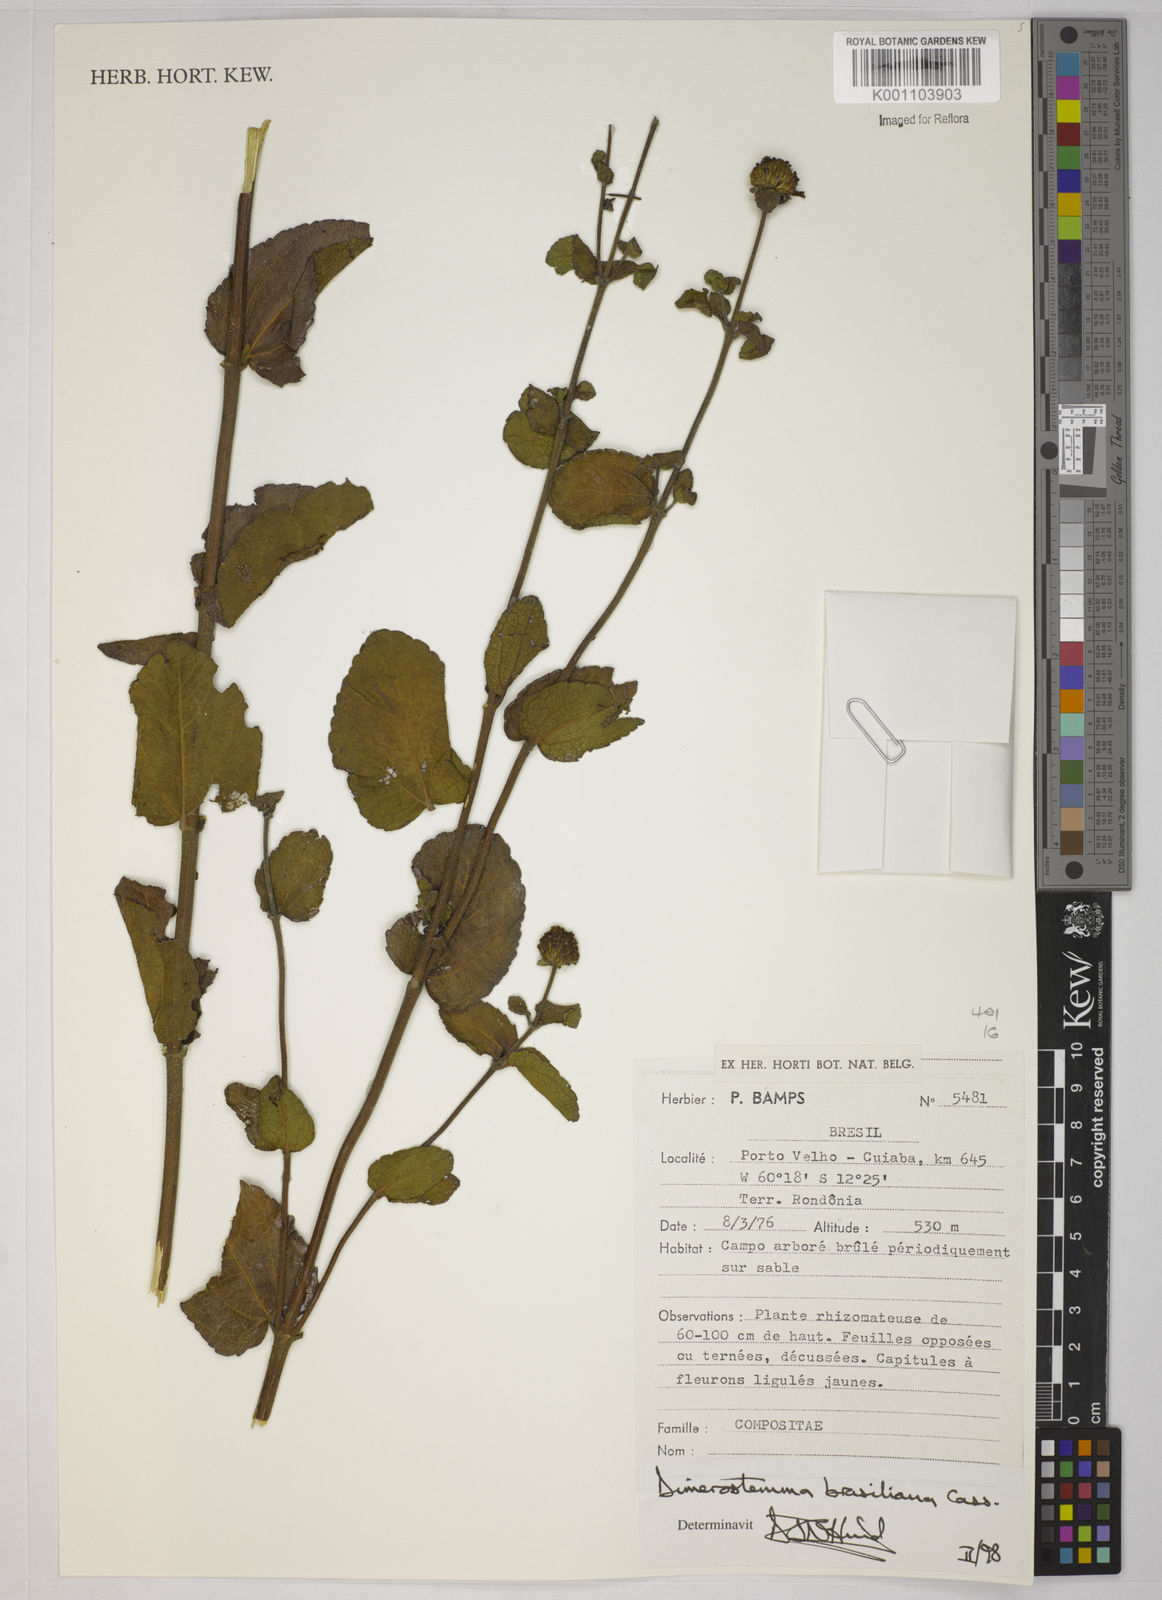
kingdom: Plantae
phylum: Tracheophyta
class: Magnoliopsida
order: Asterales
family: Asteraceae
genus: Dimerostemma
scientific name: Dimerostemma brasilianum
